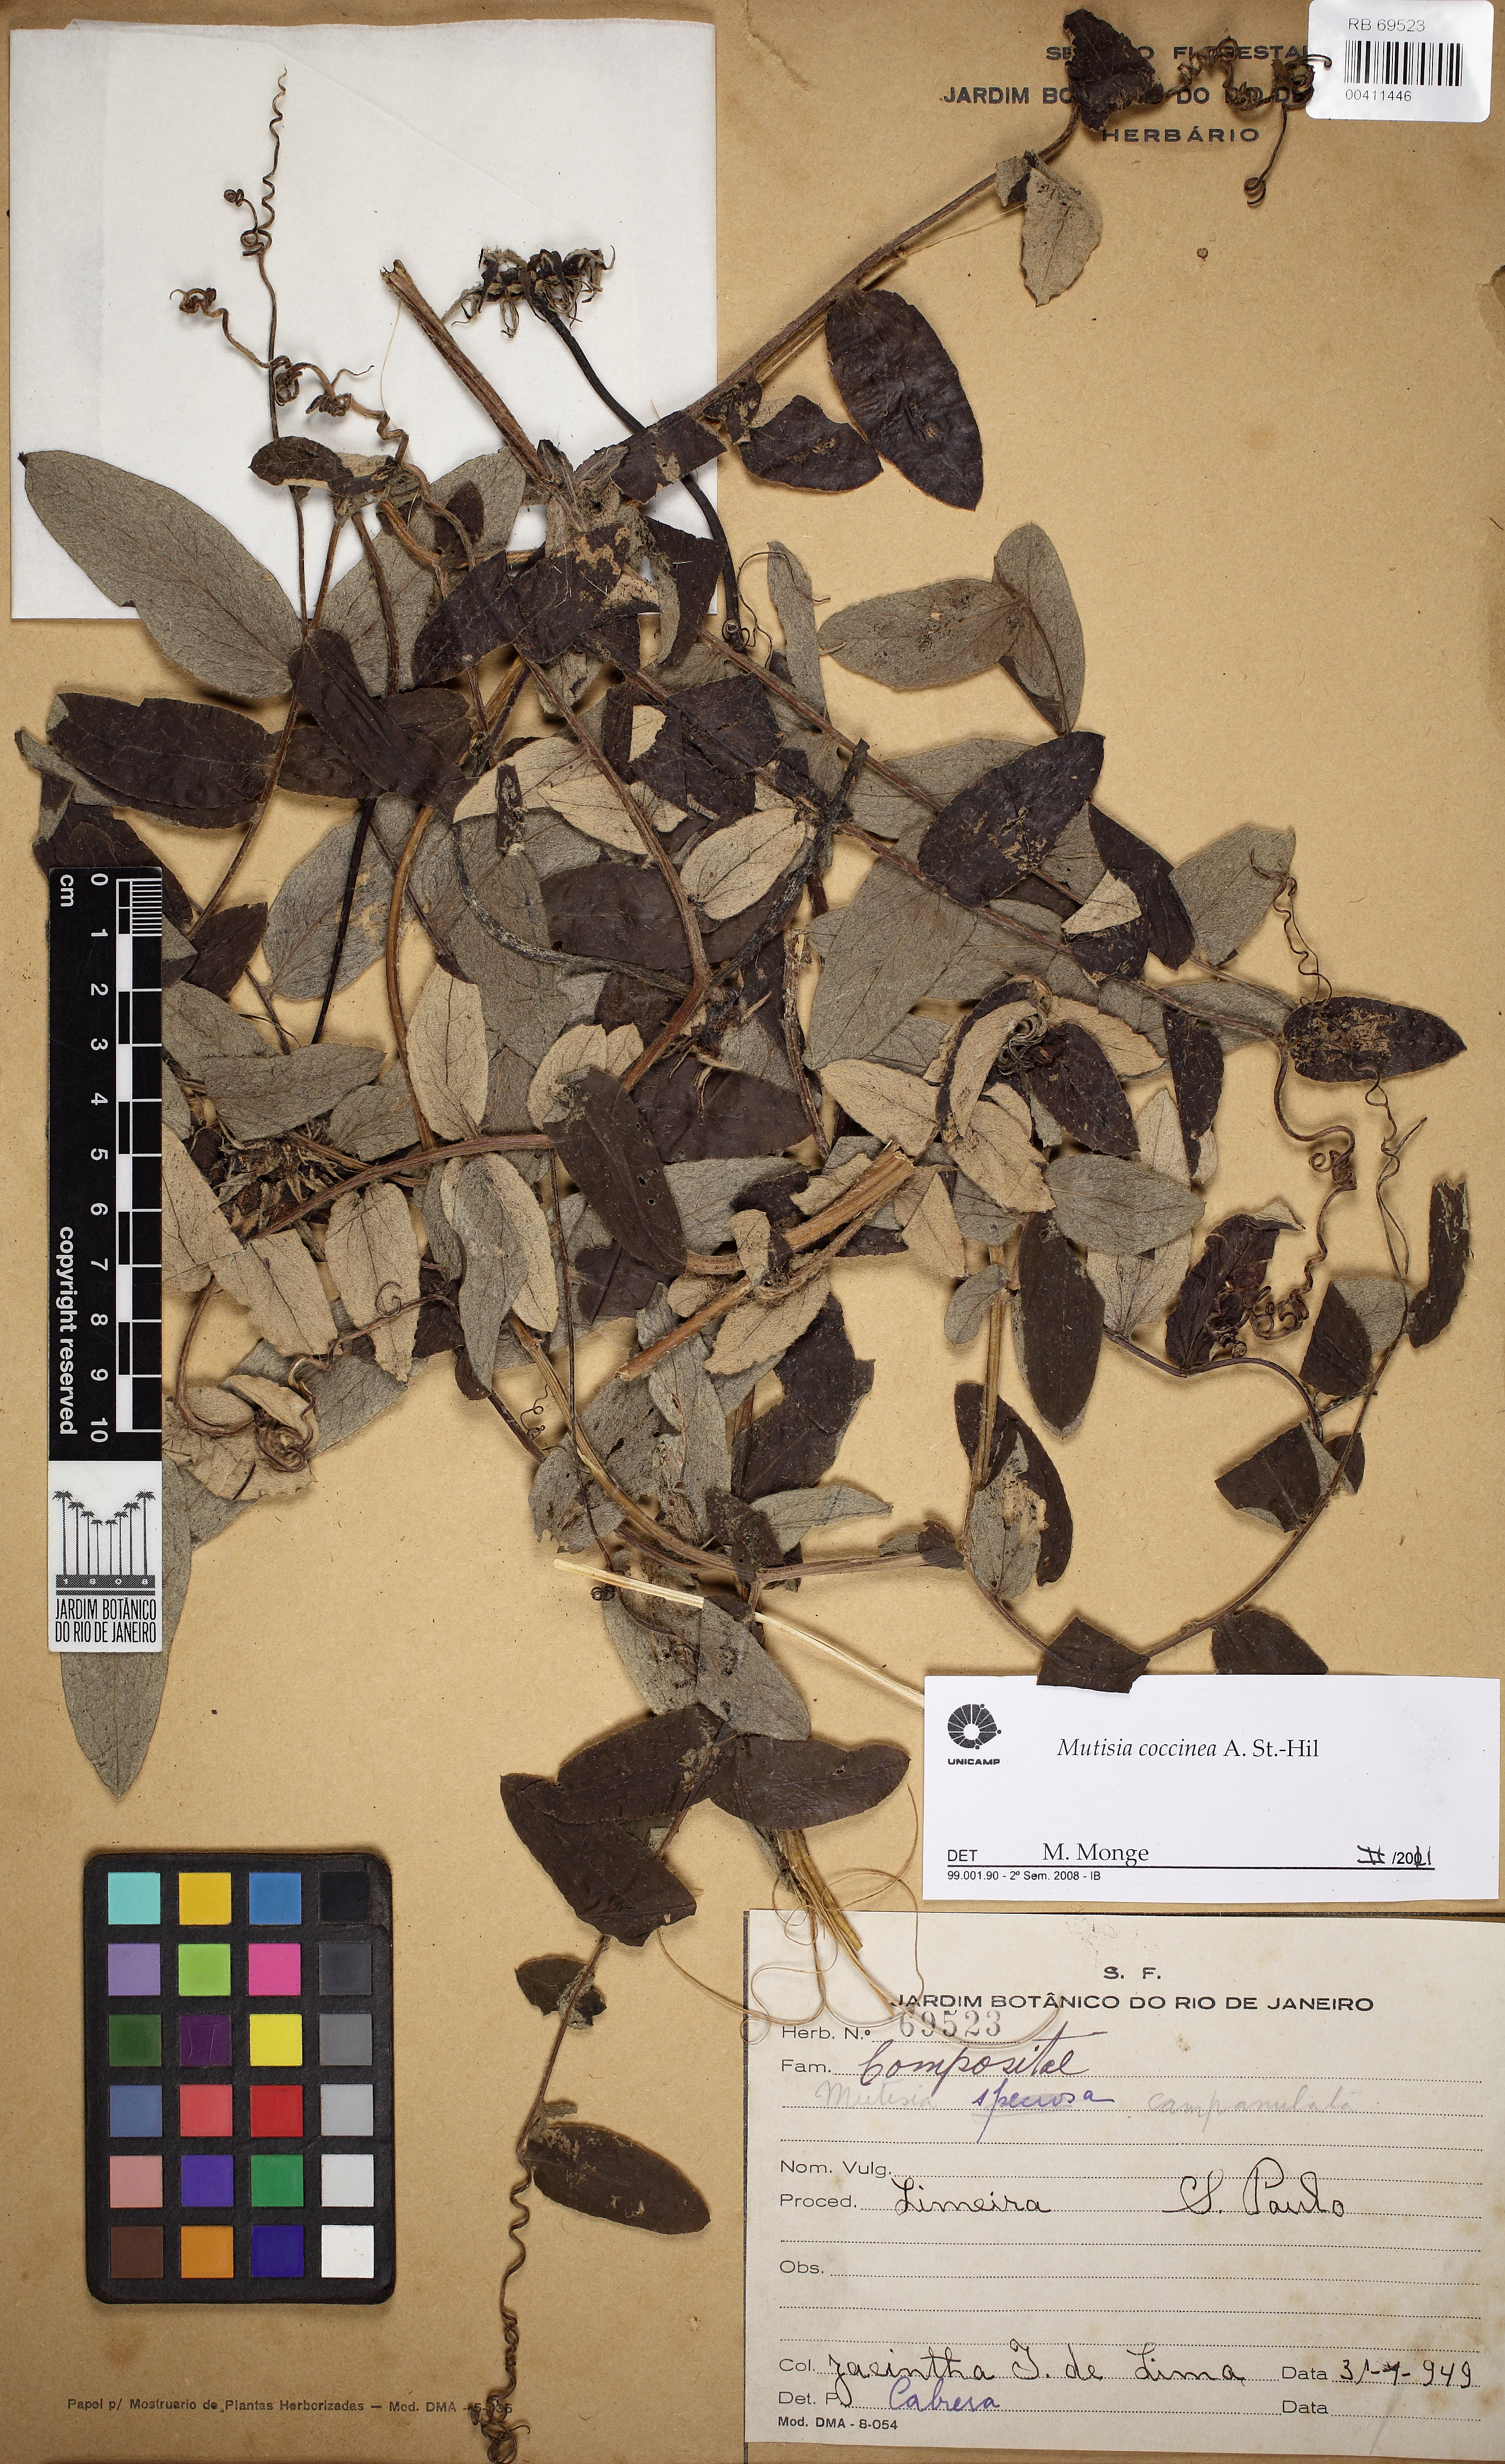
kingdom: Plantae
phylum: Tracheophyta
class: Magnoliopsida
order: Asterales
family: Asteraceae
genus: Mutisia
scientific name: Mutisia coccinea
